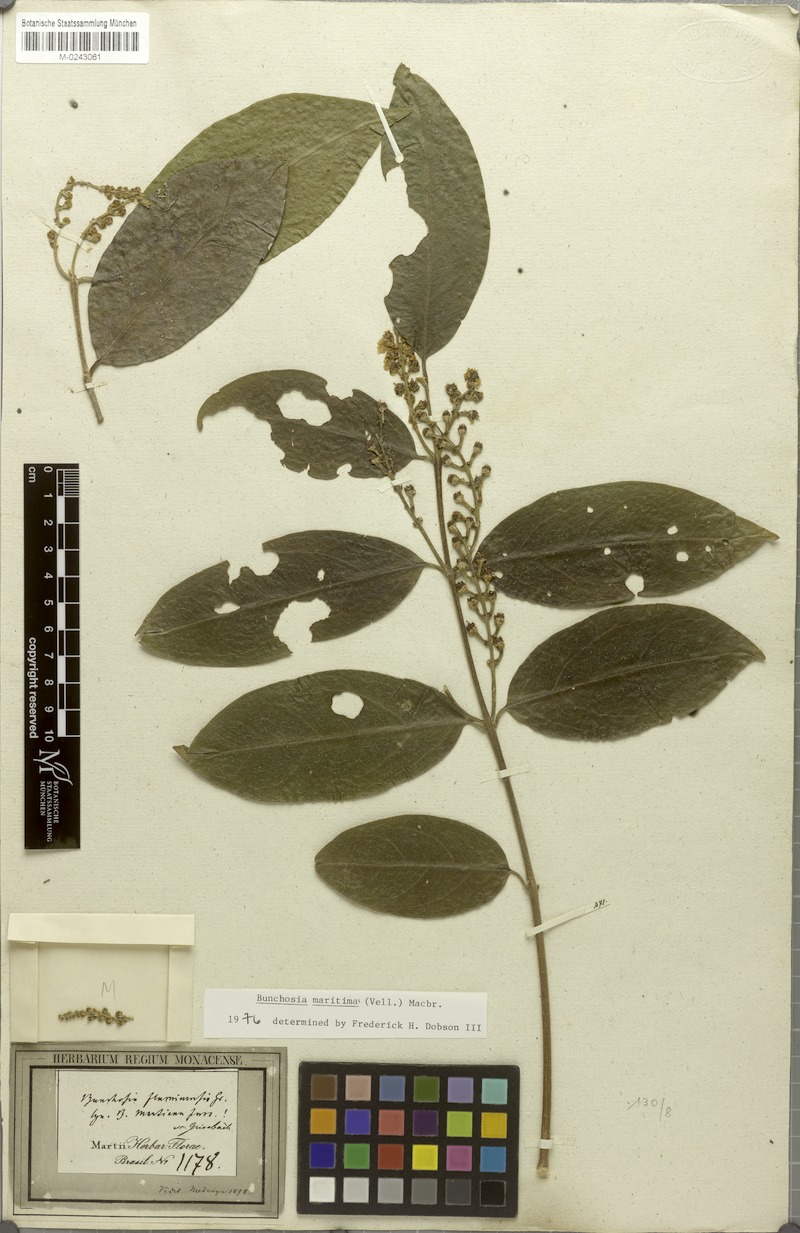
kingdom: Plantae
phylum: Tracheophyta
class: Magnoliopsida
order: Malpighiales
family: Malpighiaceae
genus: Bunchosia
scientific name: Bunchosia maritima
